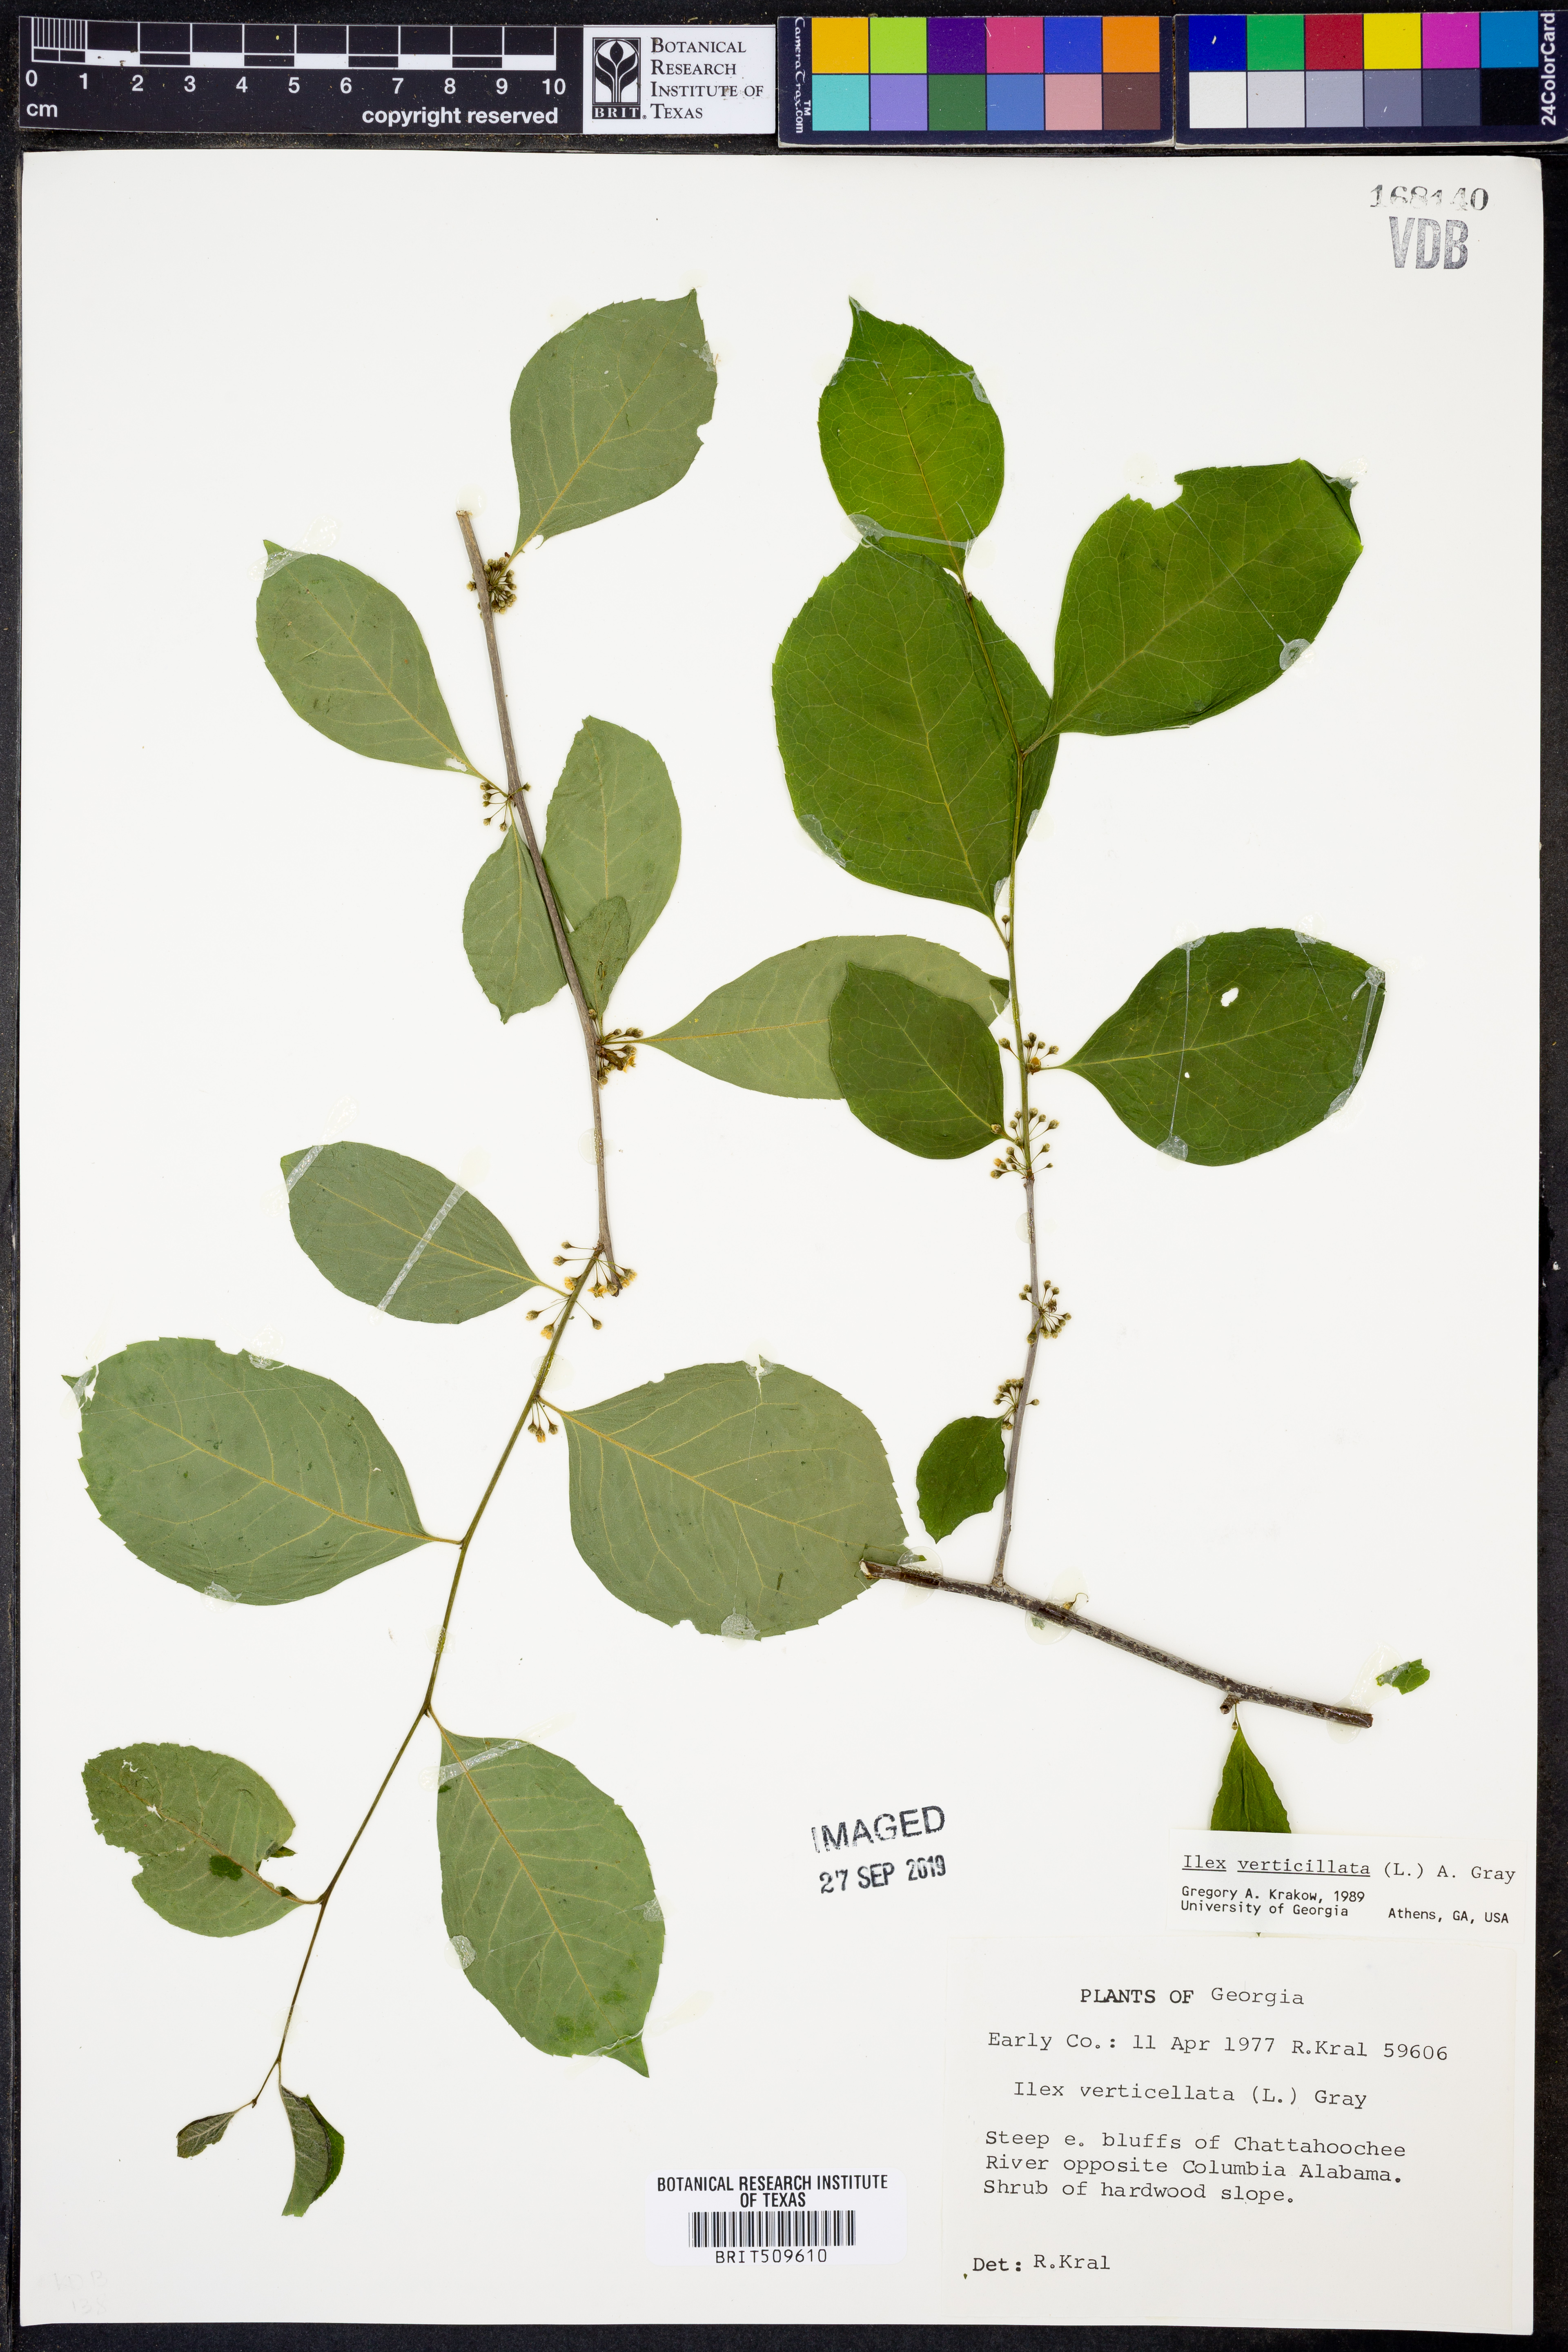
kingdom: Plantae
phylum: Tracheophyta
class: Magnoliopsida
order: Aquifoliales
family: Aquifoliaceae
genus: Ilex
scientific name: Ilex verticillata
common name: Virginia winterberry
